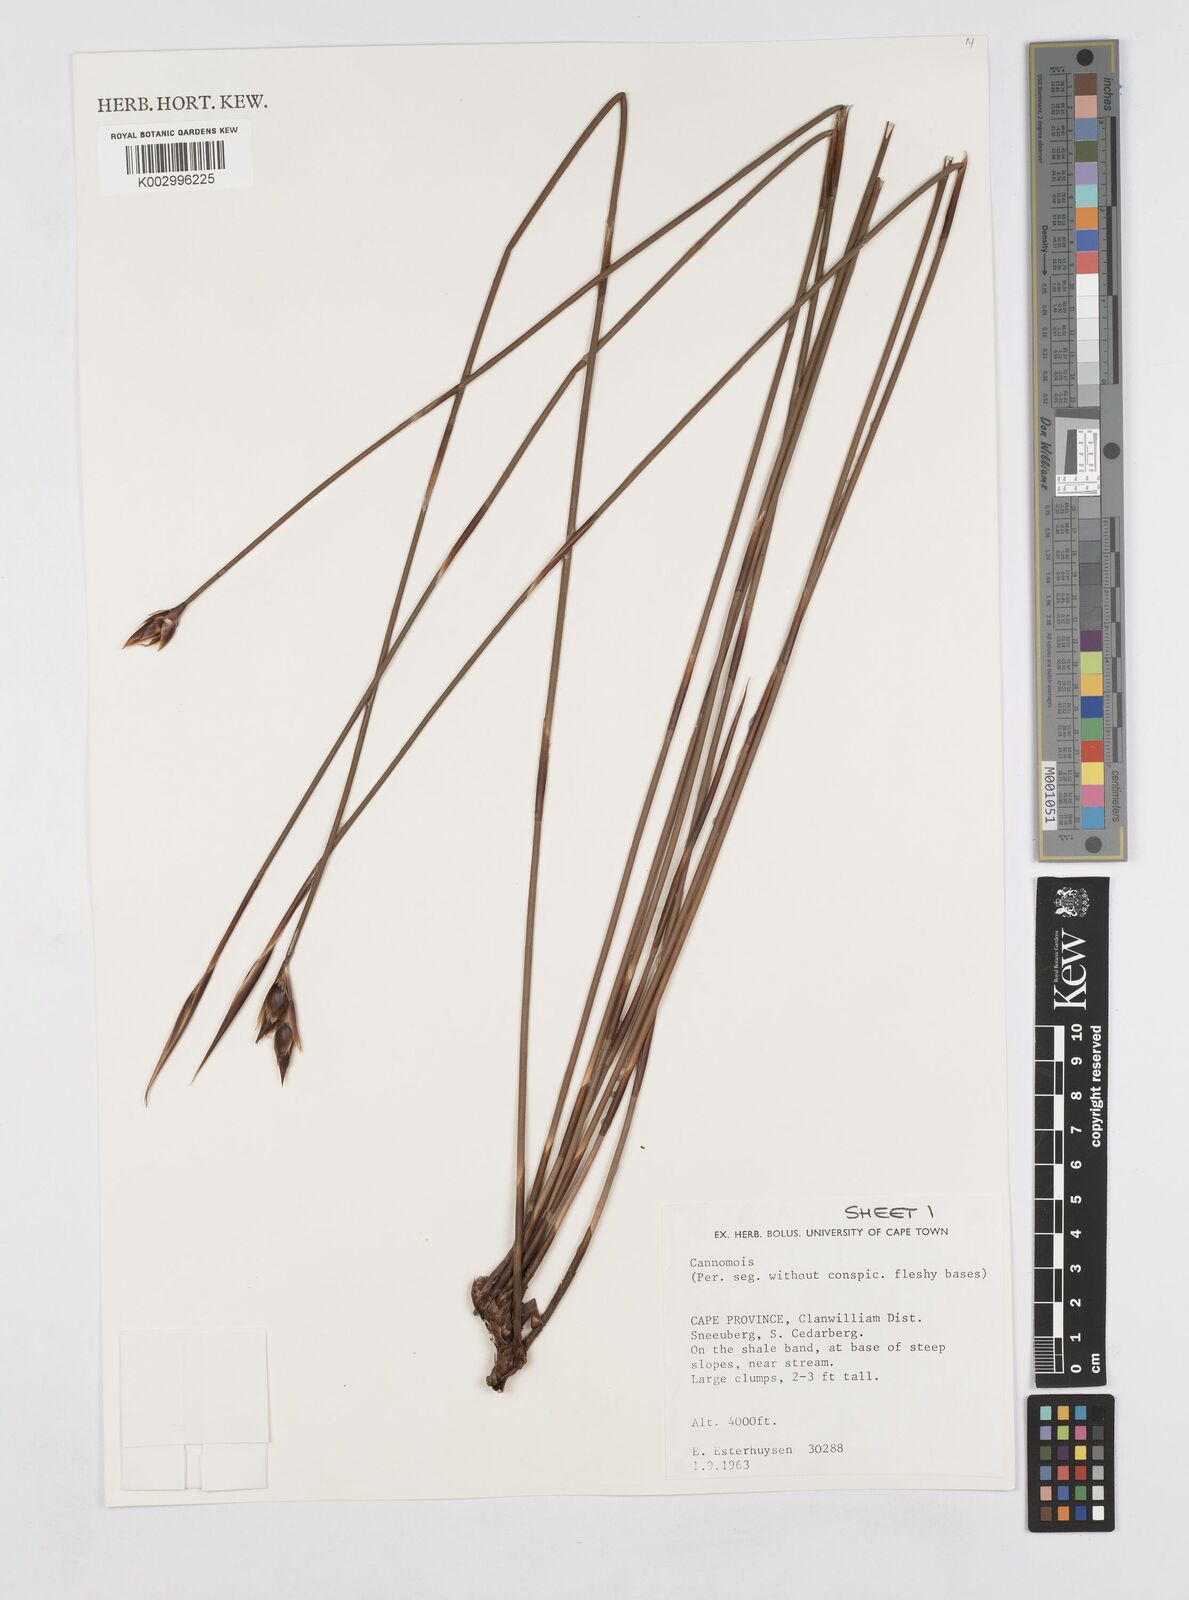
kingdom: Plantae
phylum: Tracheophyta
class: Liliopsida
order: Poales
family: Restionaceae
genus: Cannomois
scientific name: Cannomois
